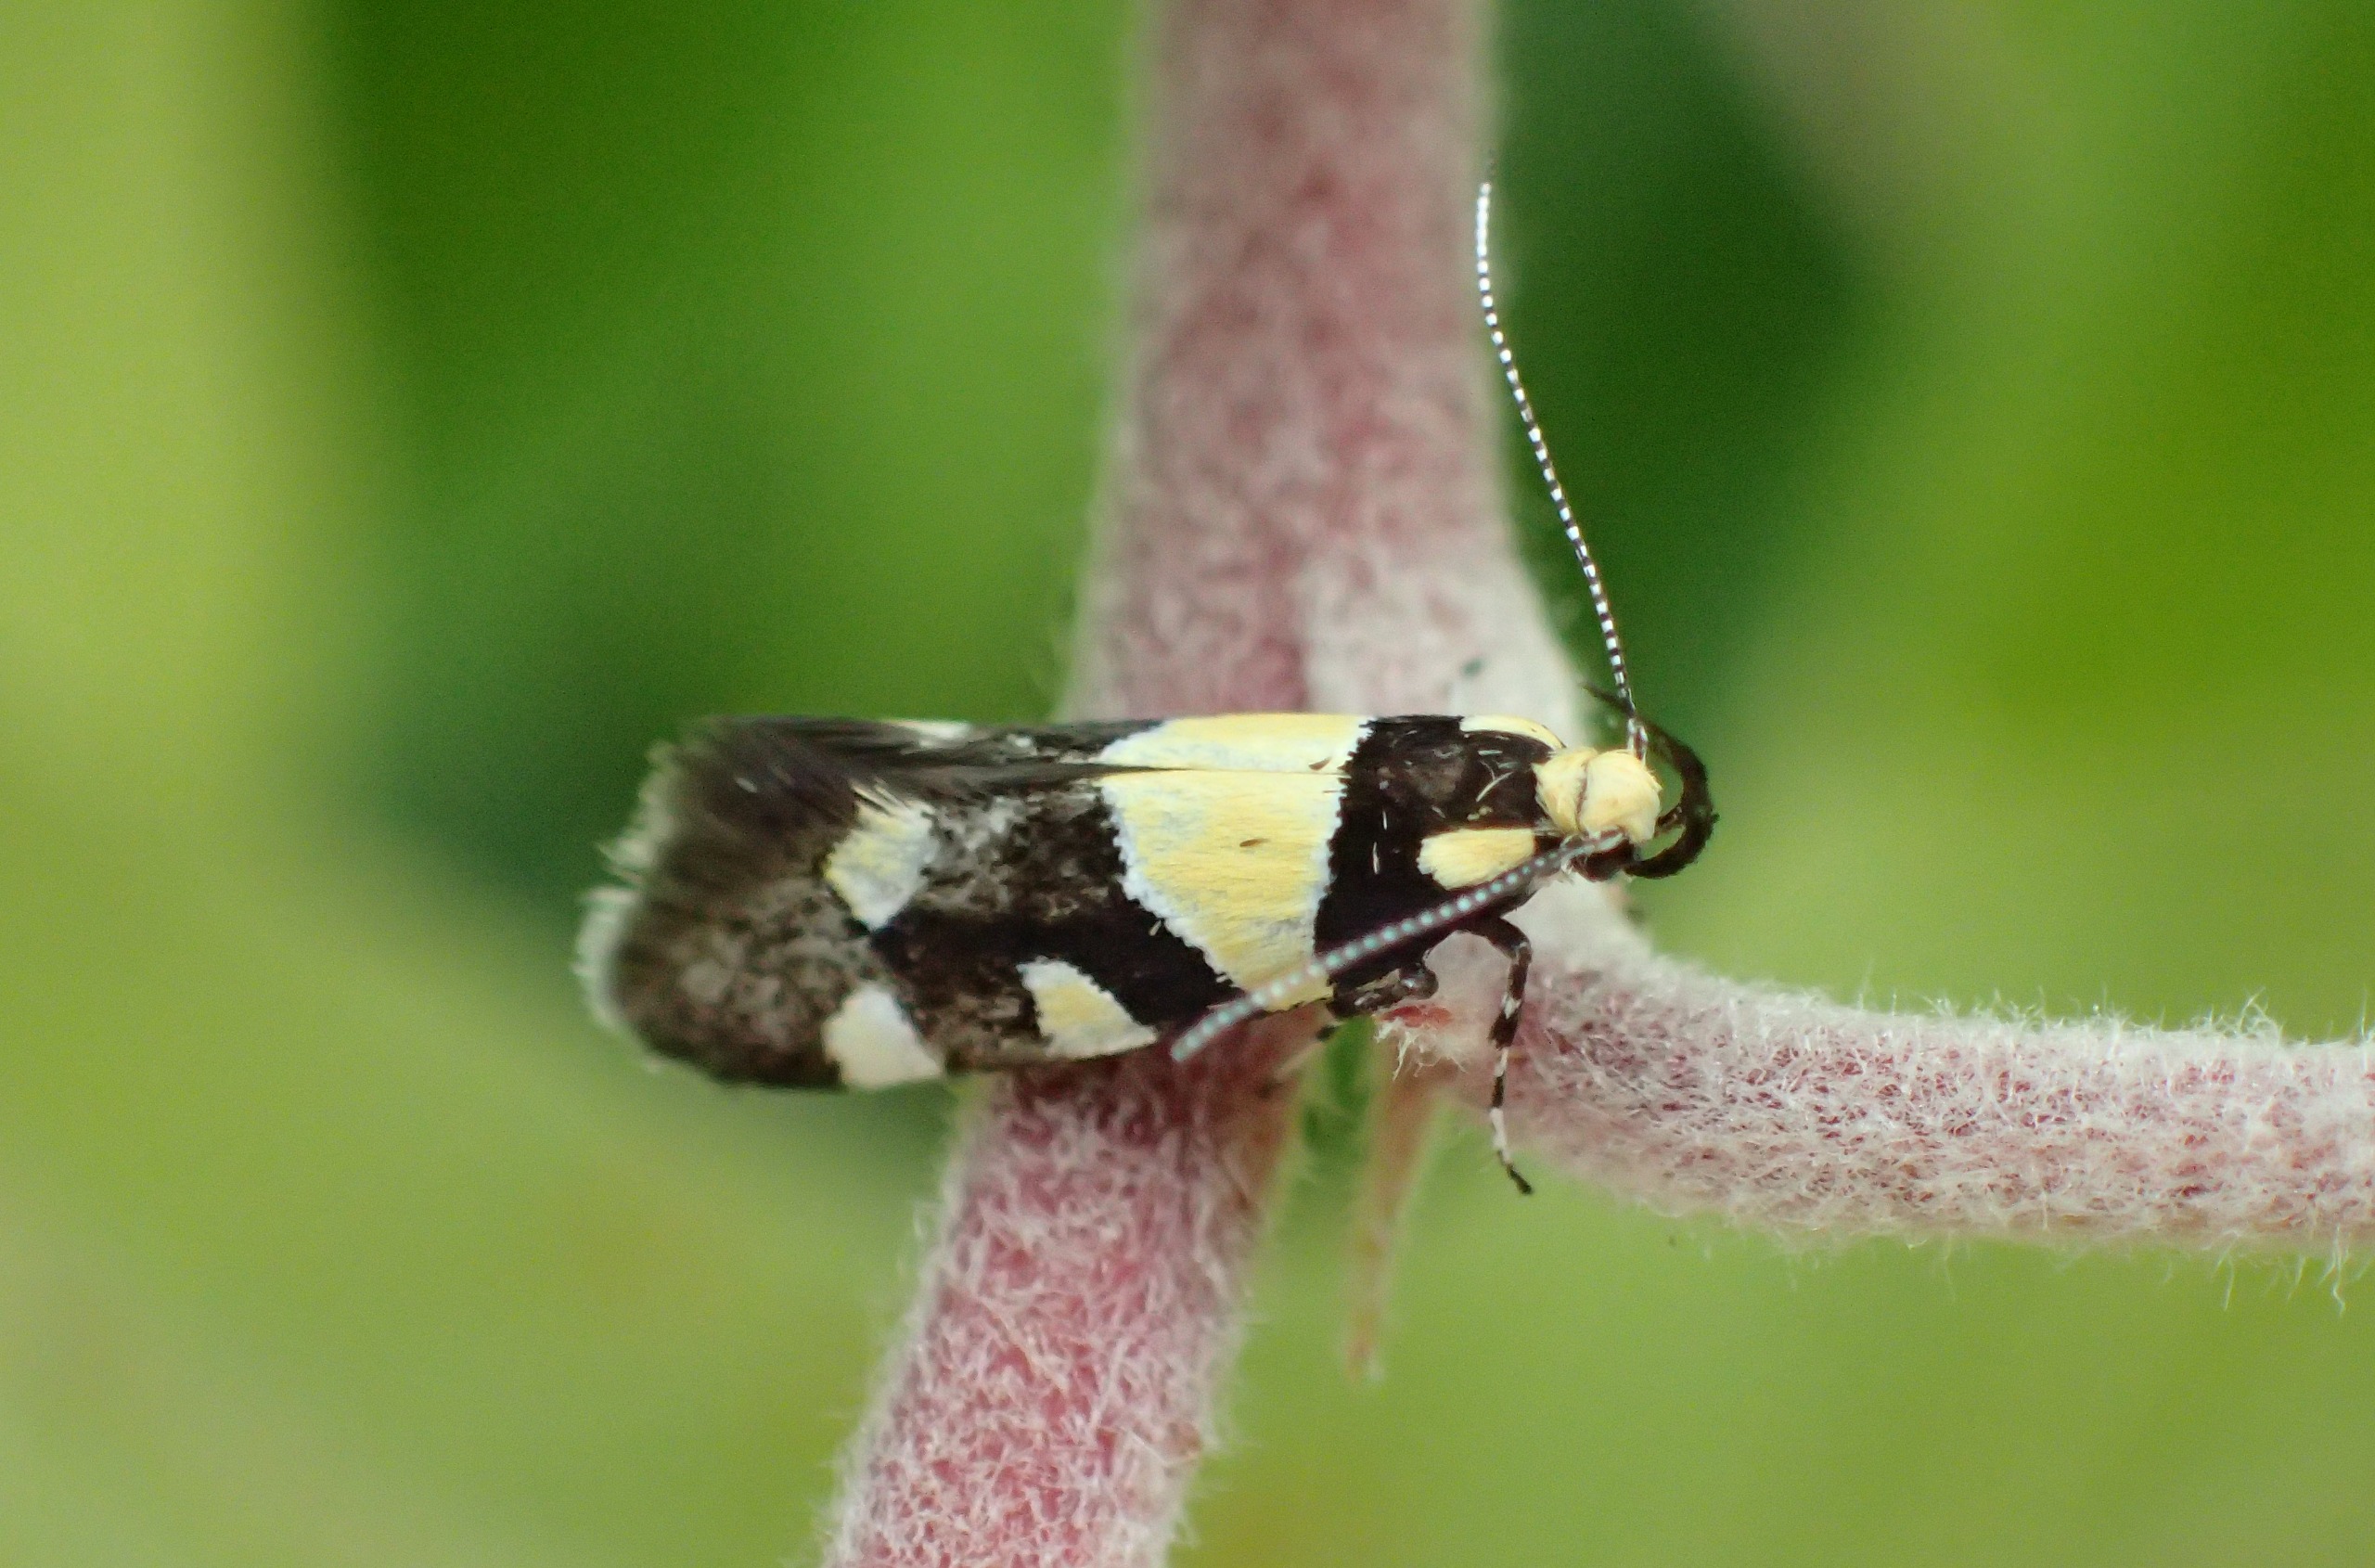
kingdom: Animalia
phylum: Arthropoda
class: Insecta
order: Lepidoptera
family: Oecophoridae
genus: Schiffermuelleria
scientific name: Schiffermuelleria amasiella
